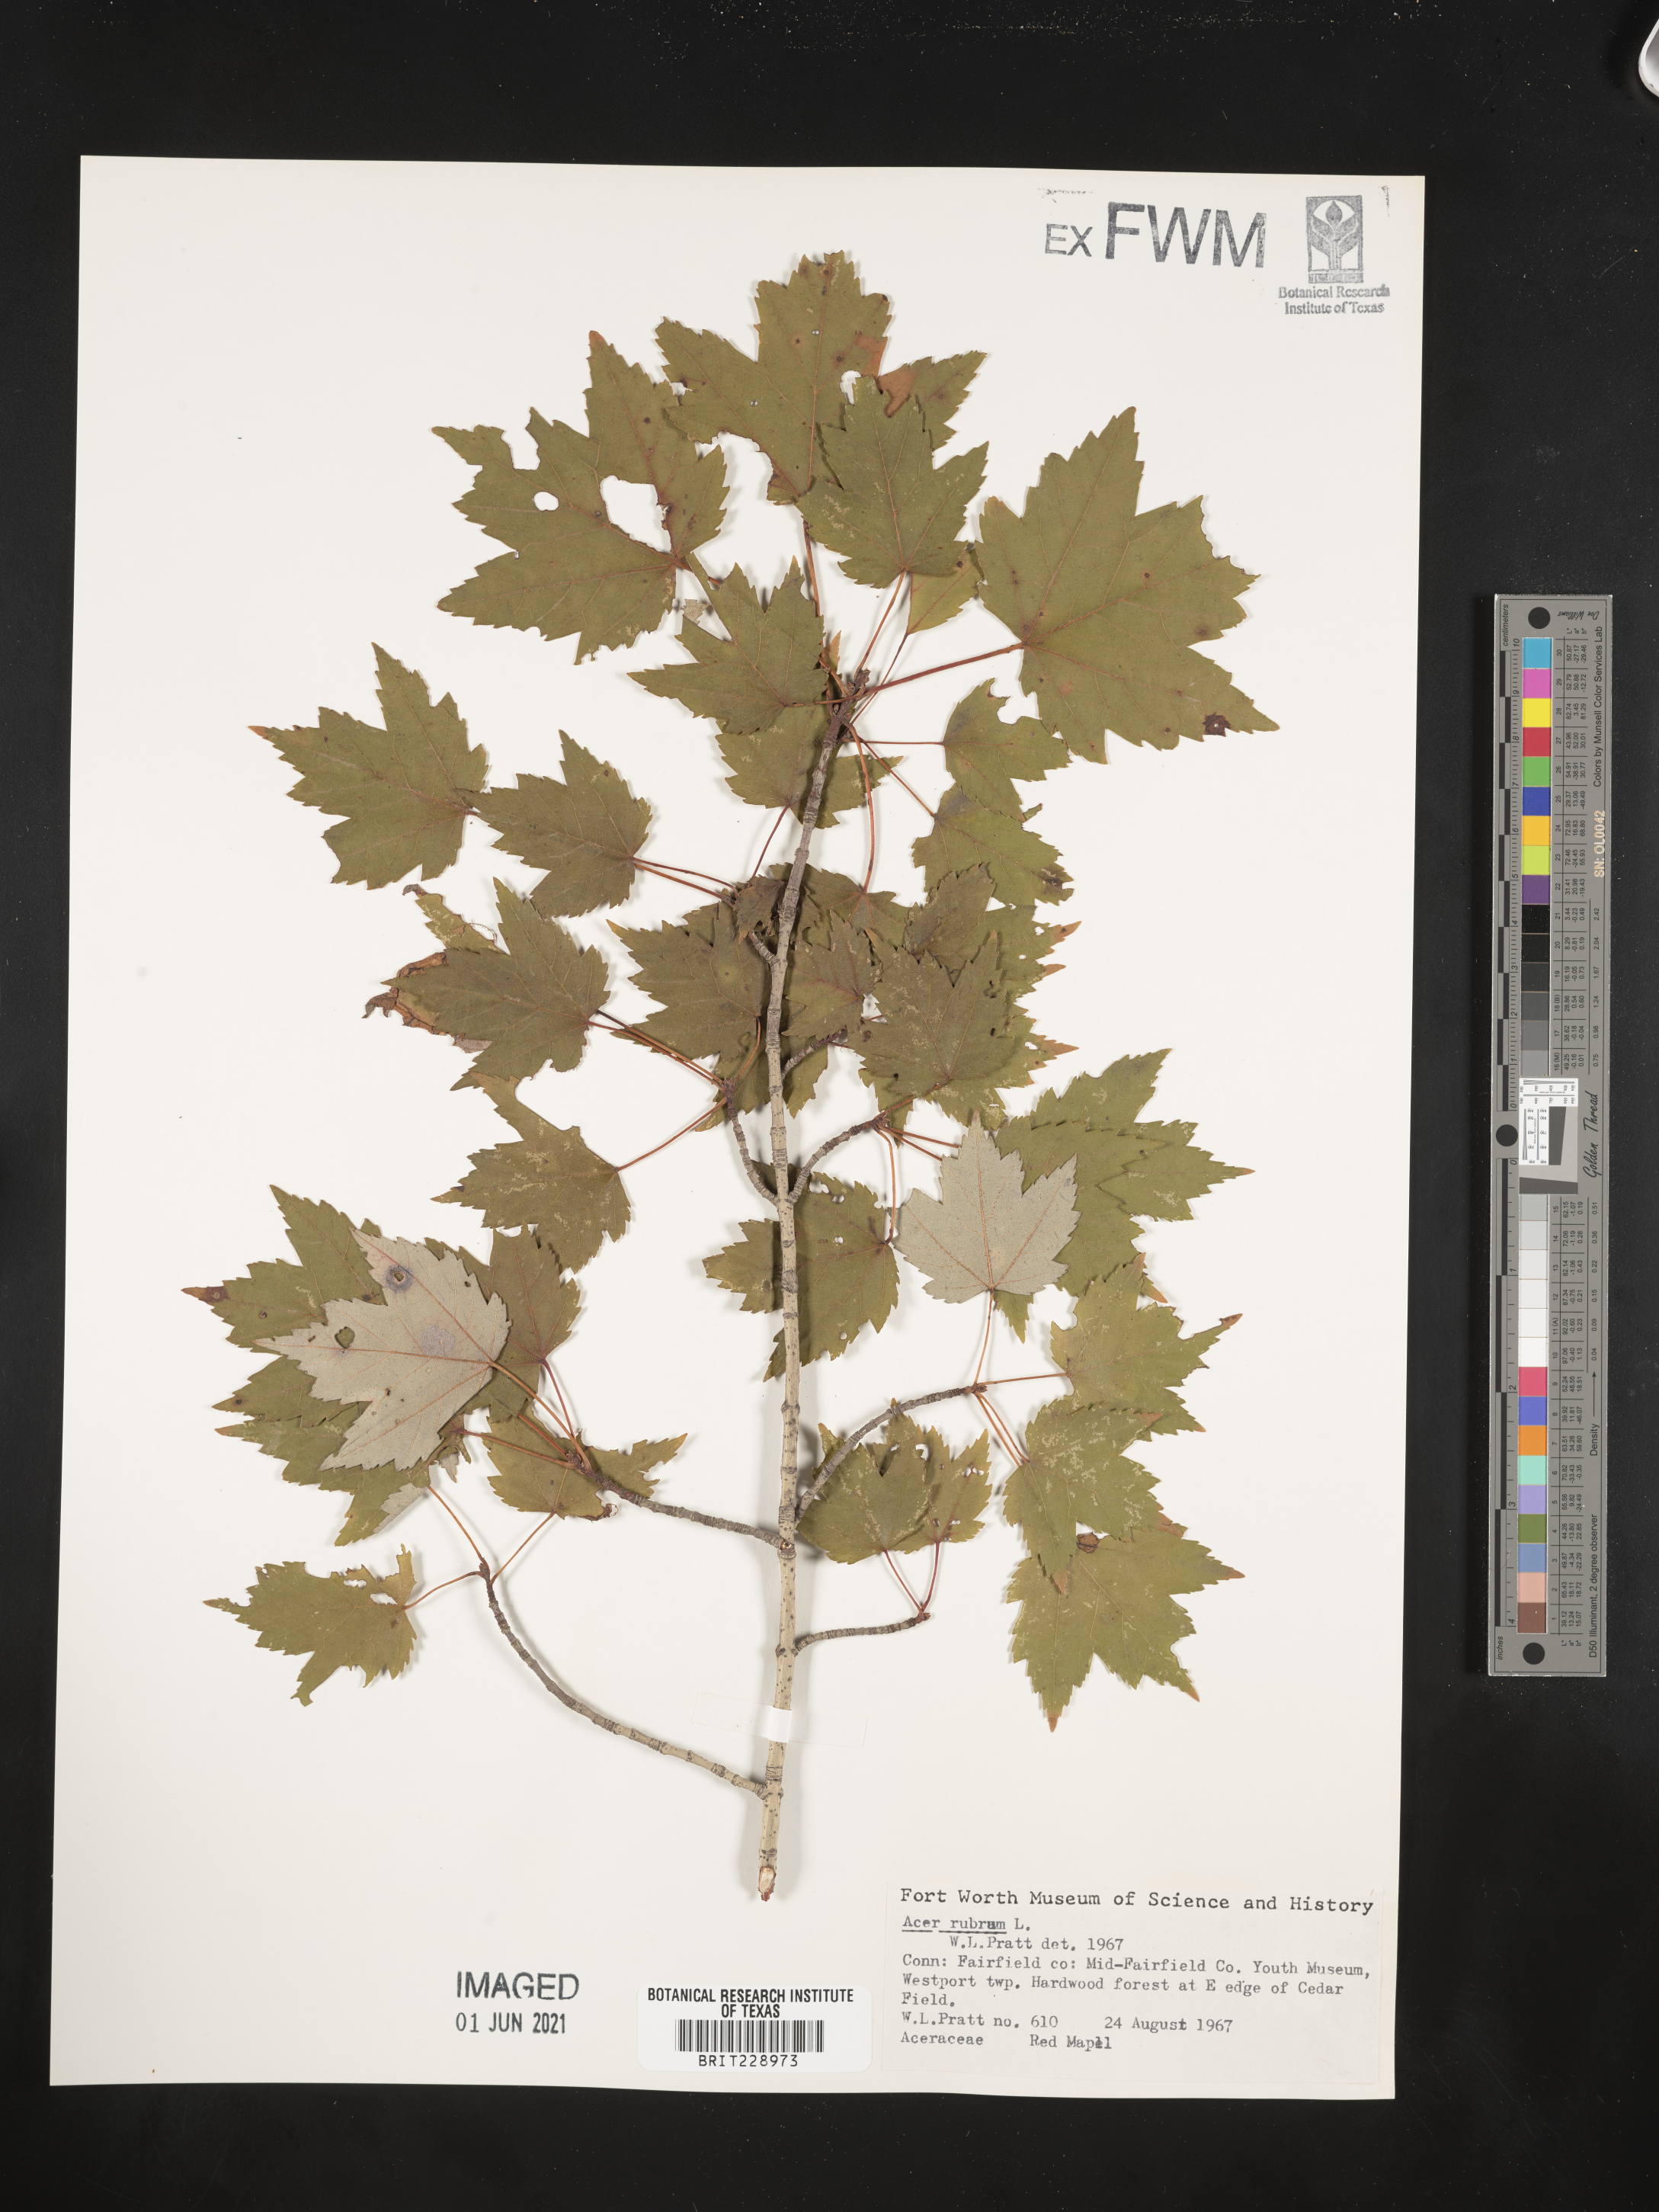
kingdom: Plantae
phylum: Tracheophyta
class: Magnoliopsida
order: Sapindales
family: Sapindaceae
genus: Acer
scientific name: Acer rubrum
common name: Red maple
